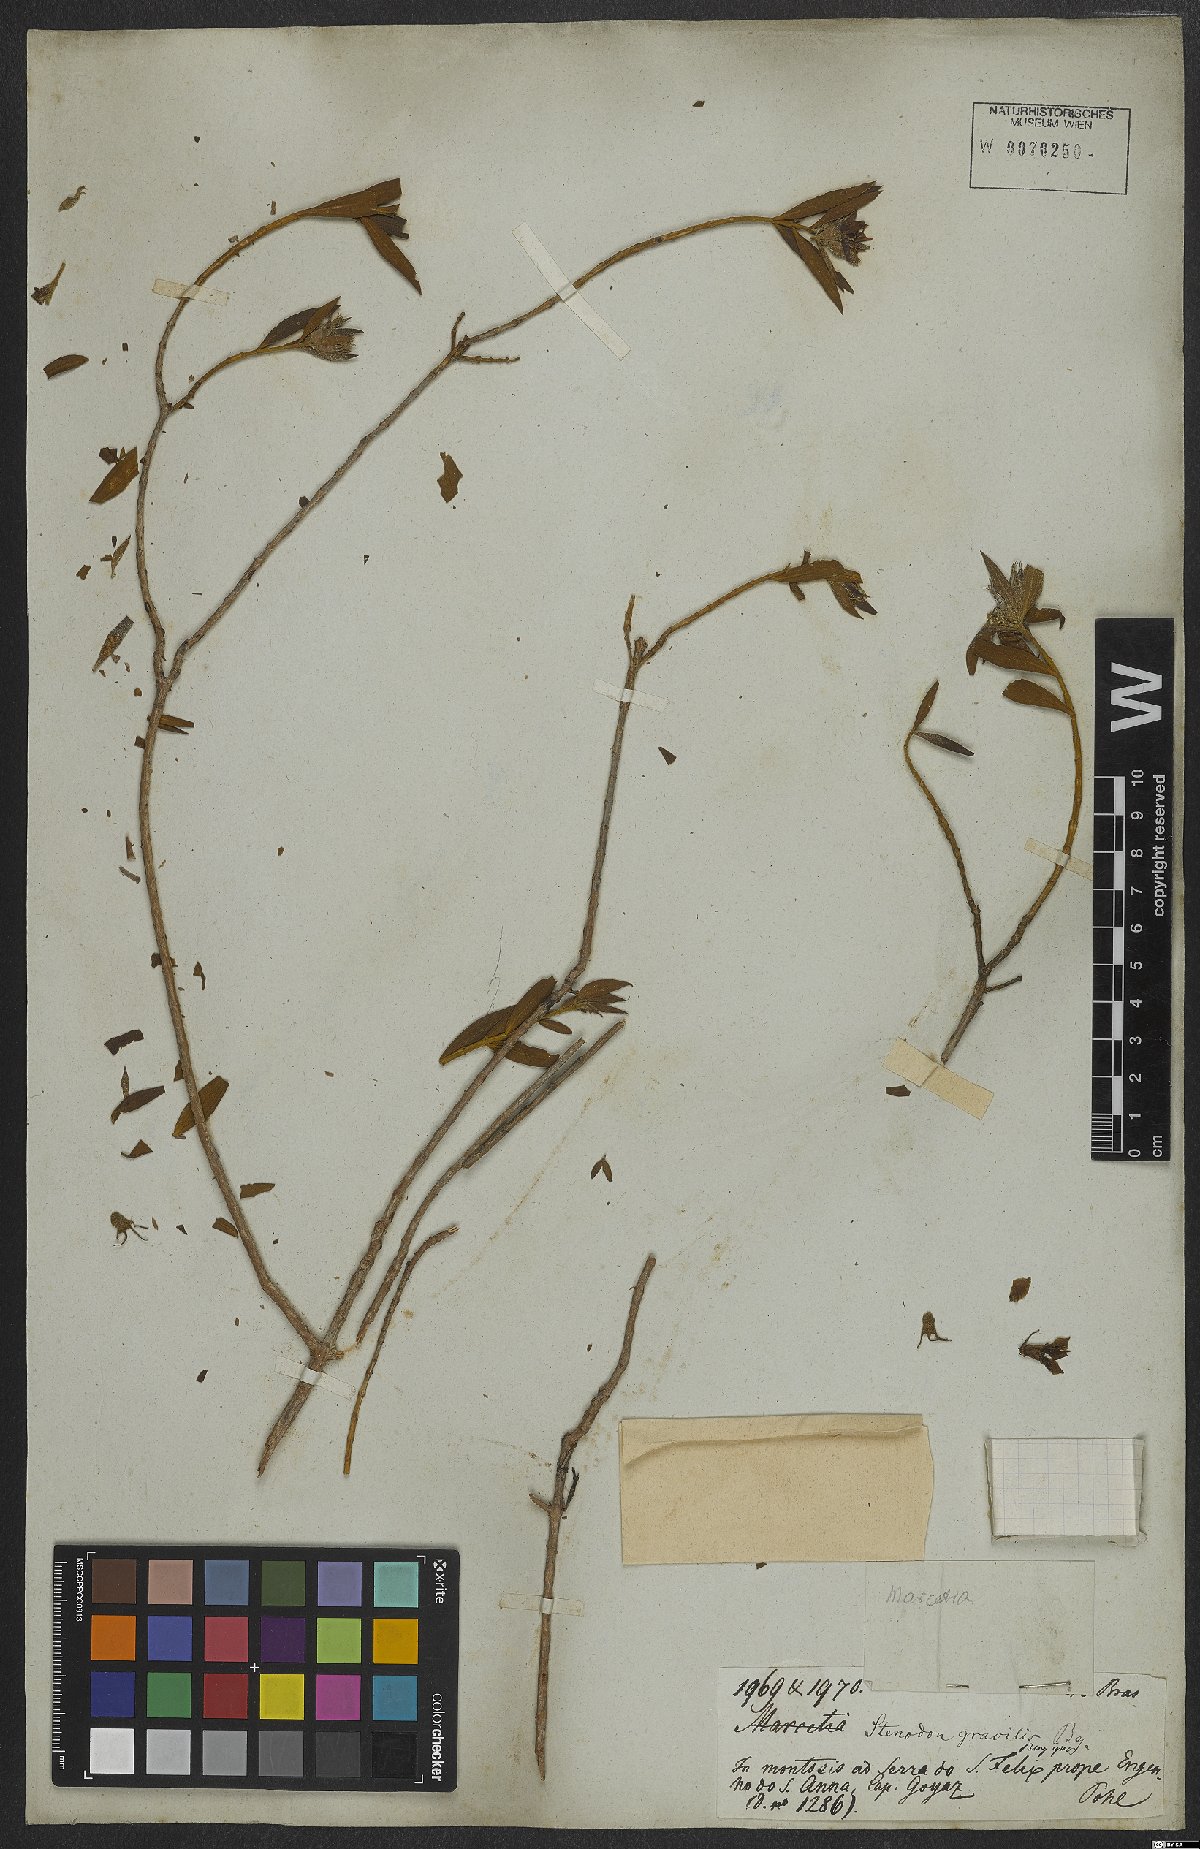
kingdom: Plantae
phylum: Tracheophyta
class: Magnoliopsida
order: Myrtales
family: Melastomataceae
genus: Microlicia
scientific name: Microlicia neogracilis
